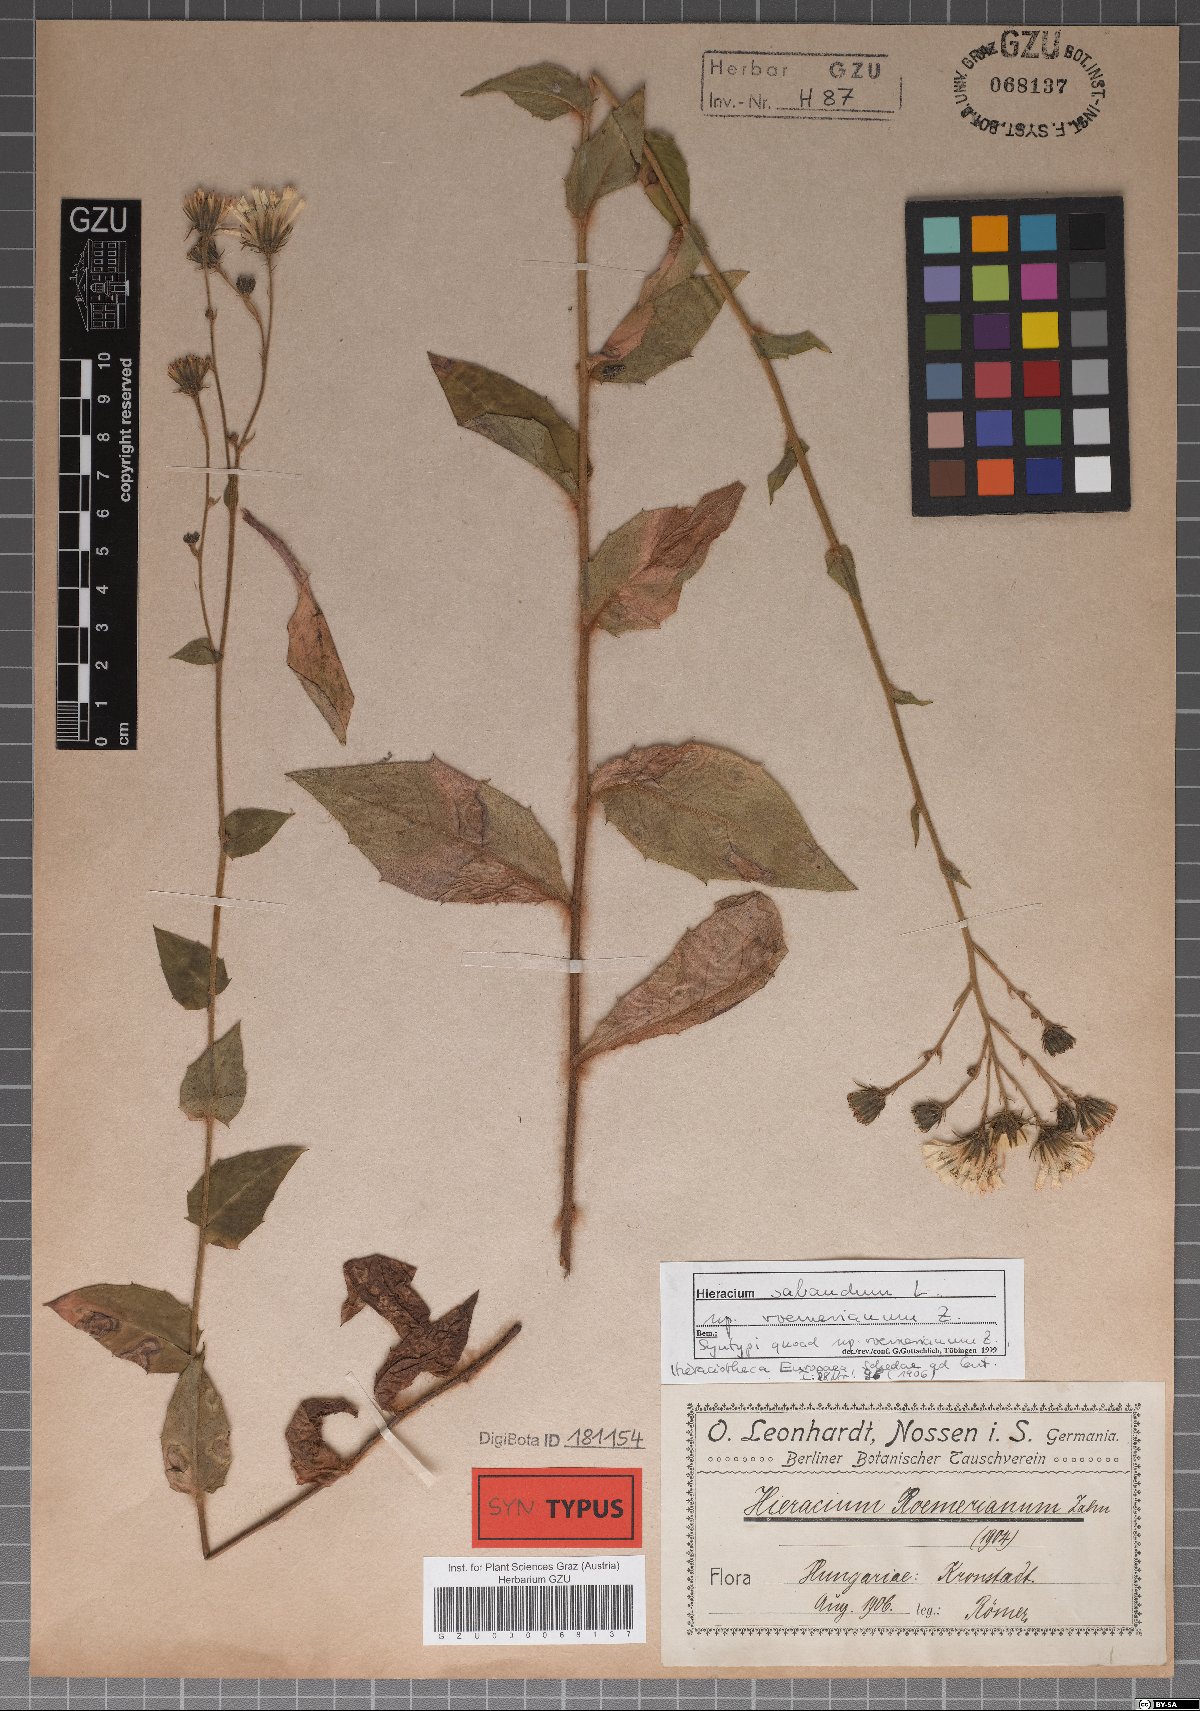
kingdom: Plantae
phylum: Tracheophyta
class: Magnoliopsida
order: Asterales
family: Asteraceae
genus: Hieracium
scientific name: Hieracium roemerianum
